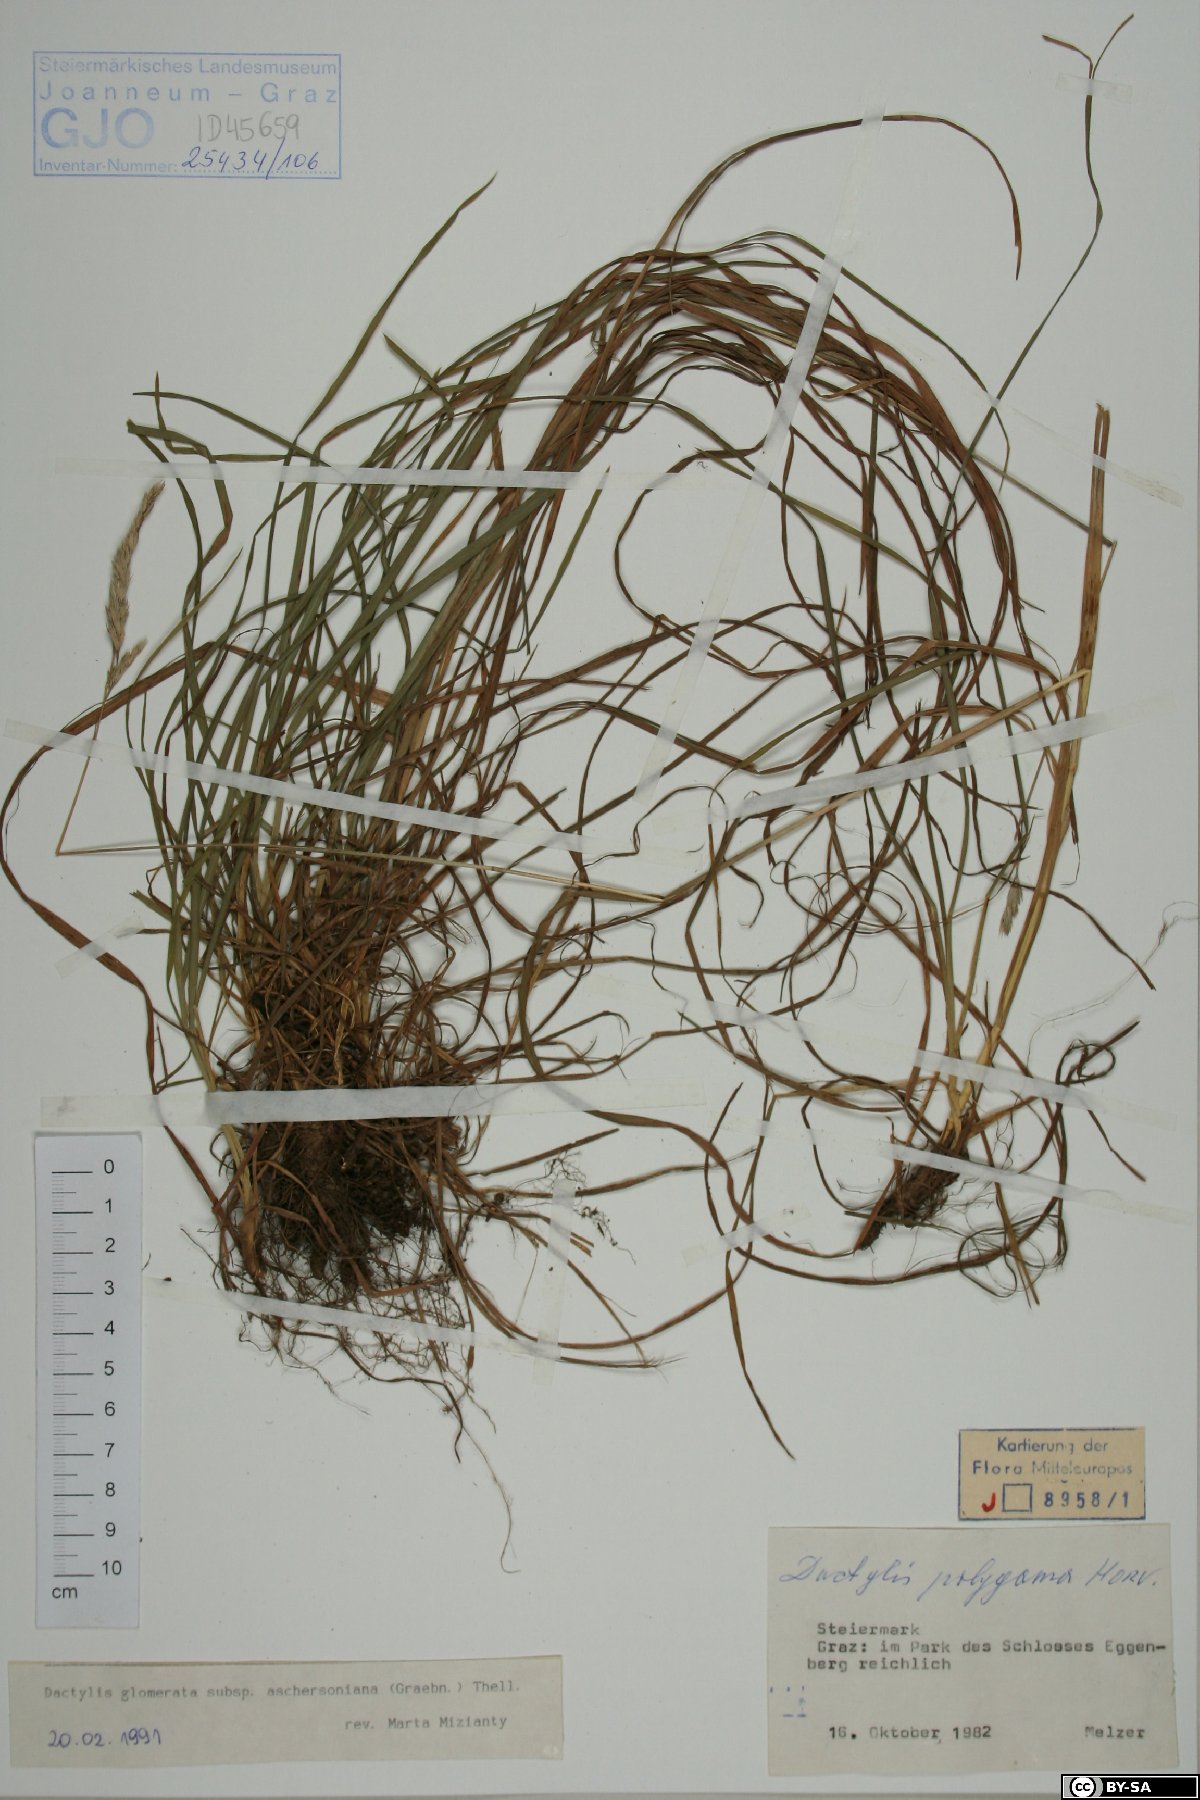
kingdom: Plantae
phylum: Tracheophyta
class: Liliopsida
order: Poales
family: Poaceae
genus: Dactylis
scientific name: Dactylis glomerata
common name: Orchardgrass
